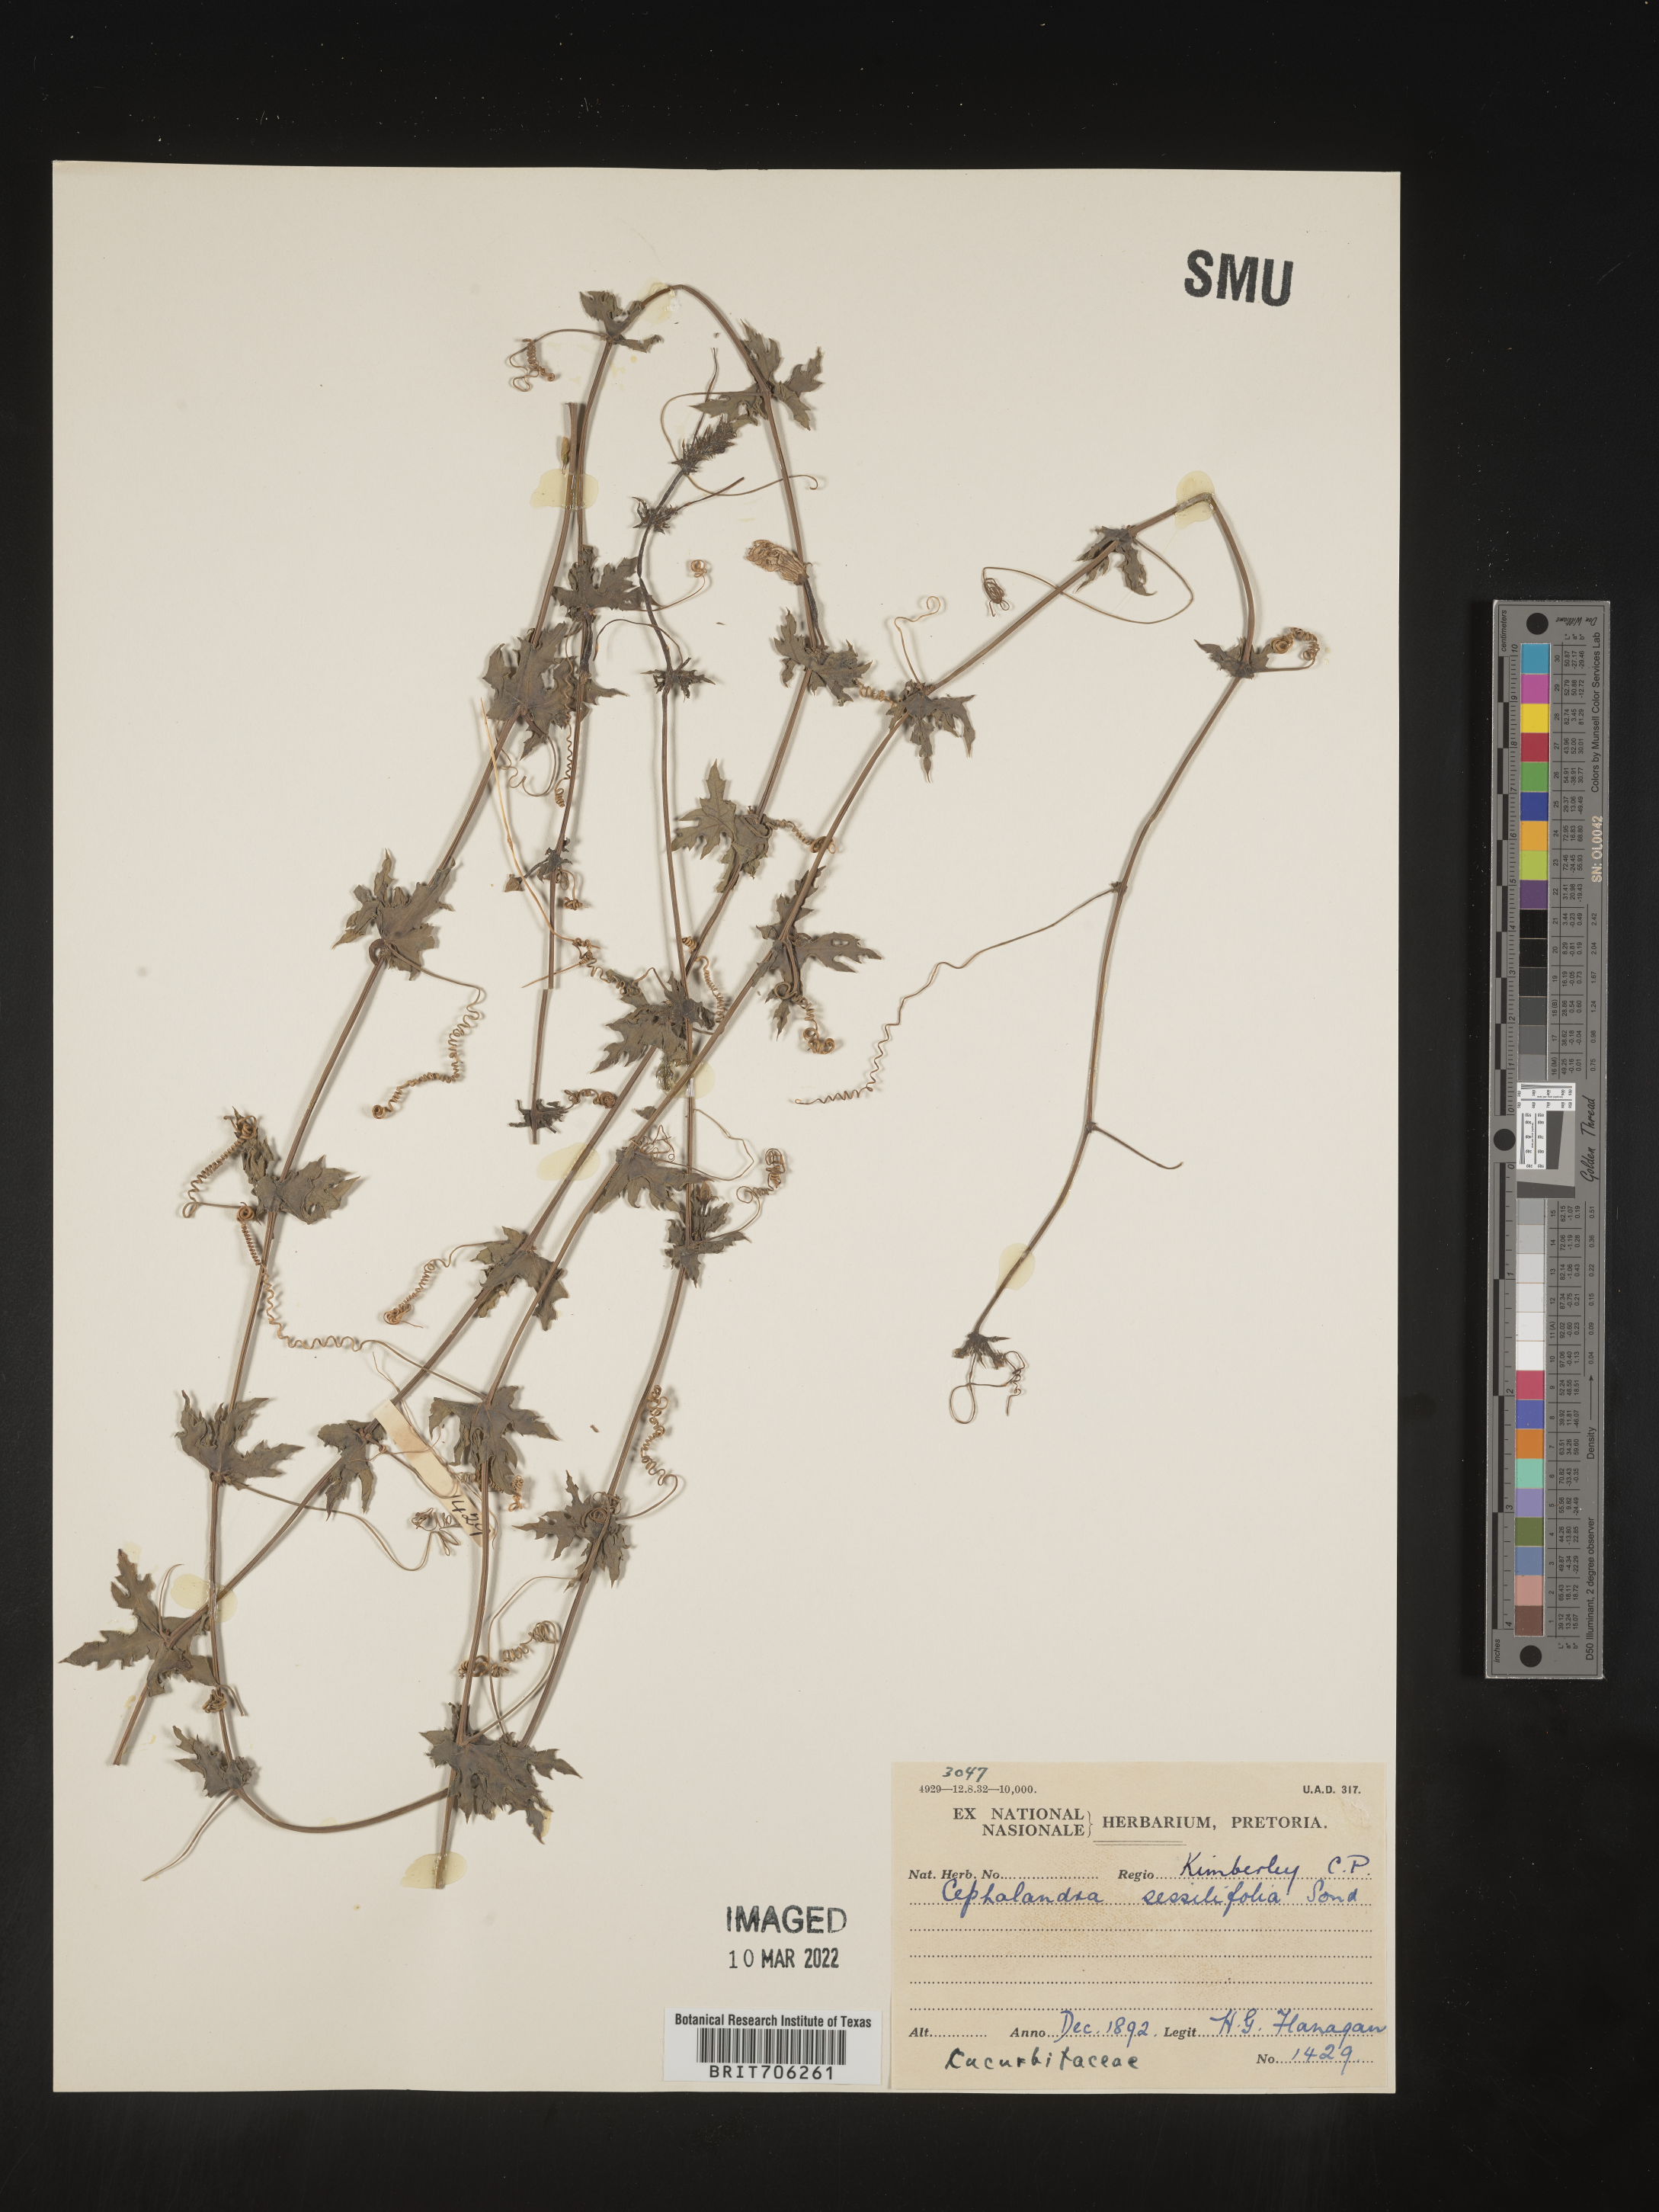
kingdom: Plantae
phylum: Tracheophyta
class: Magnoliopsida
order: Cucurbitales
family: Cucurbitaceae
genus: Coccinia
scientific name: Coccinia
